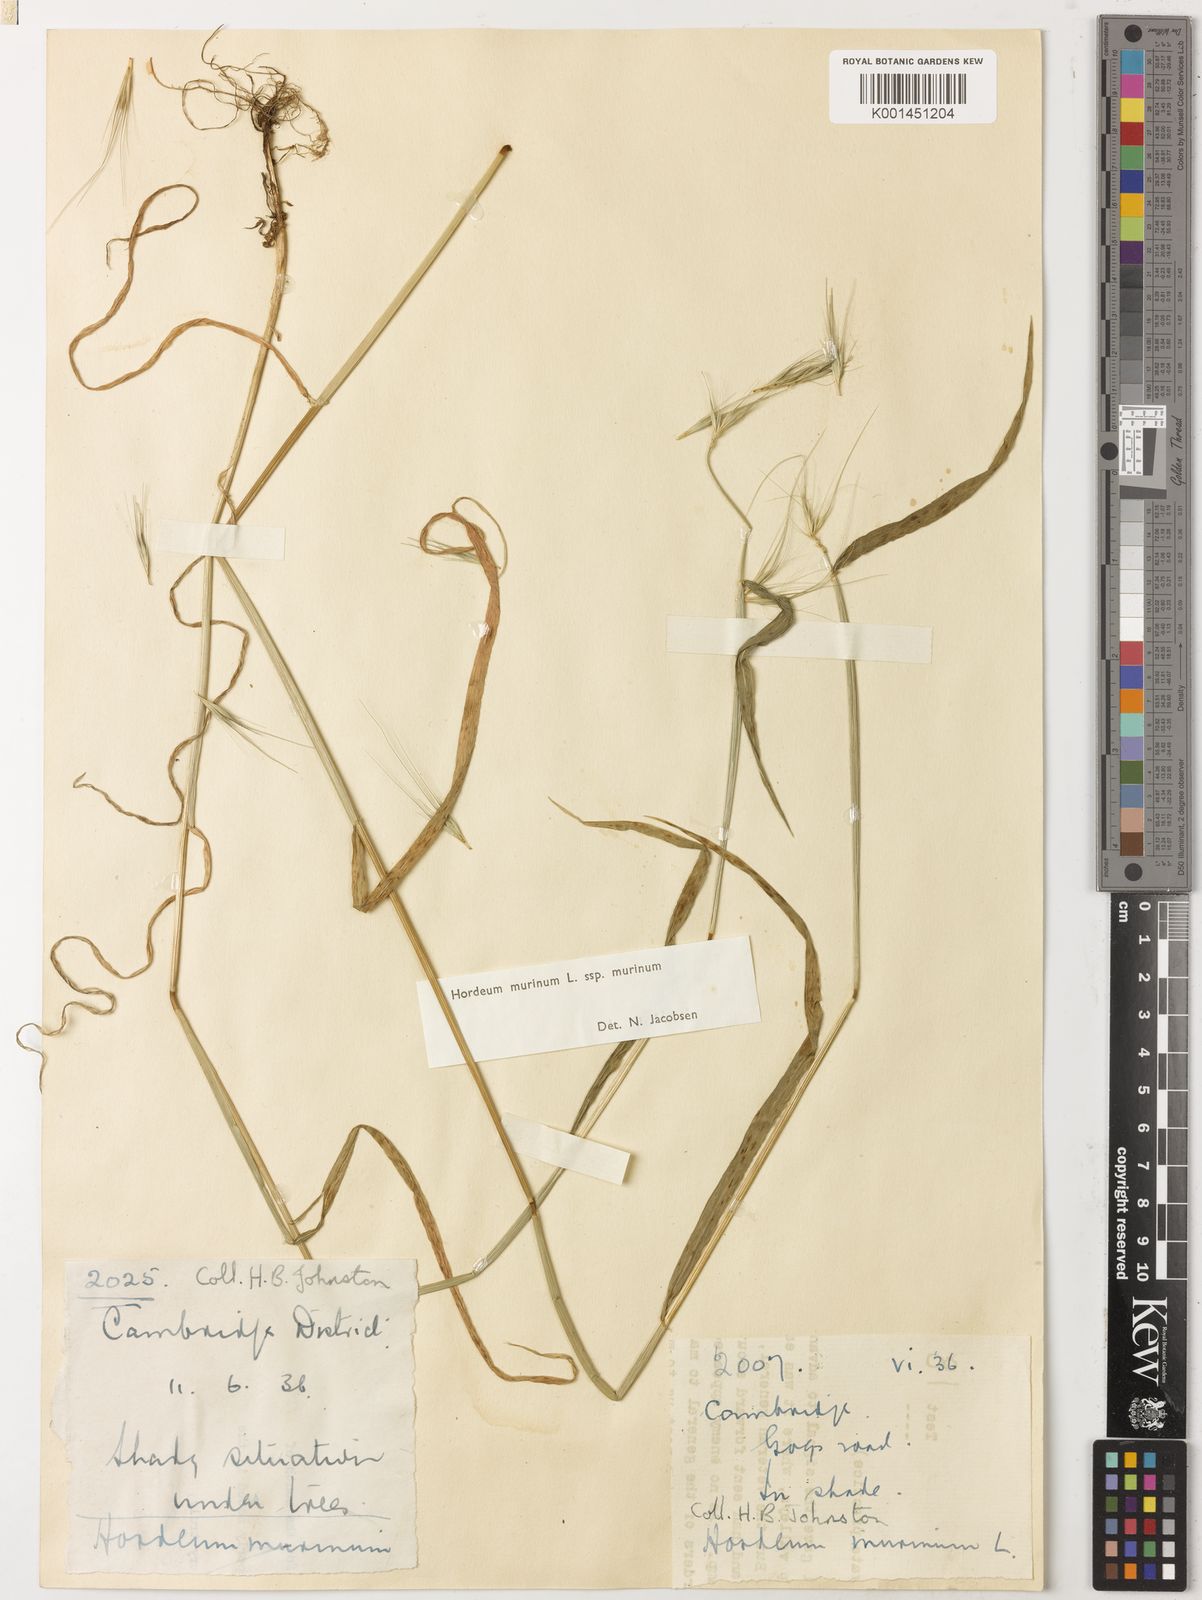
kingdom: Plantae
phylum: Tracheophyta
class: Liliopsida
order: Poales
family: Poaceae
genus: Hordeum
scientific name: Hordeum murinum
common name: Wall barley
